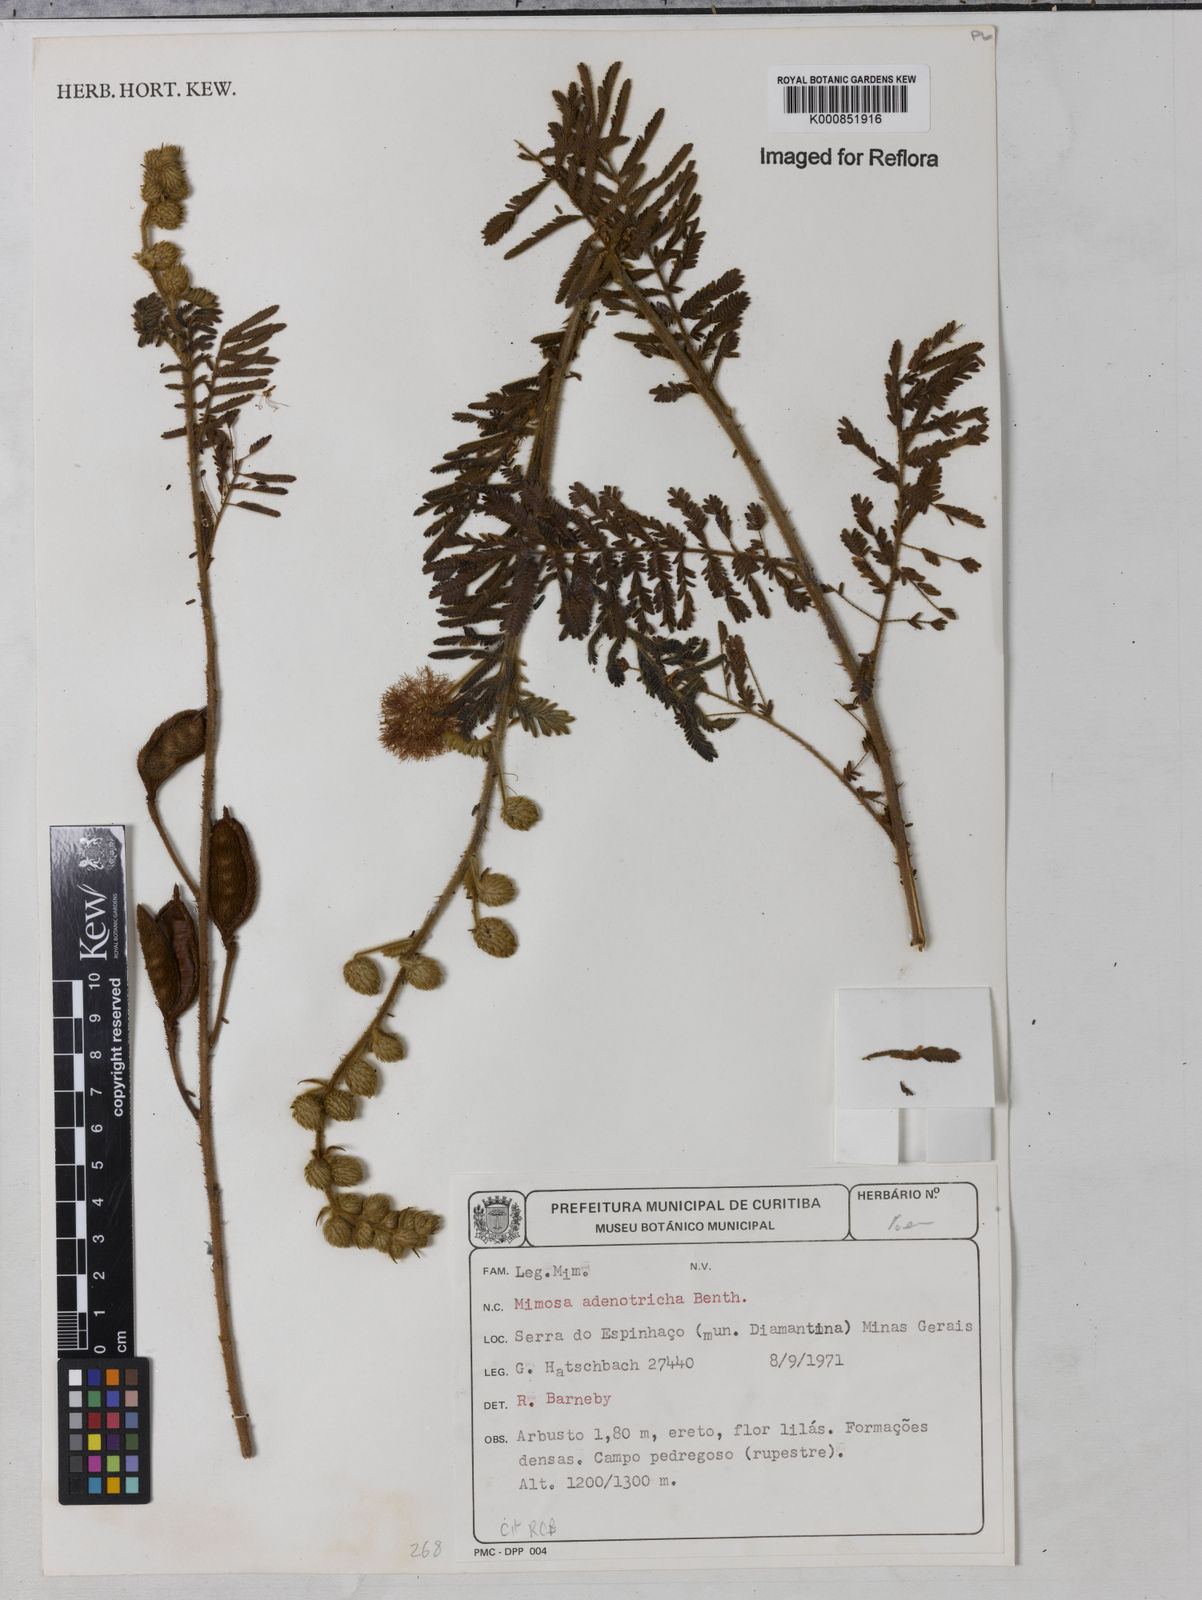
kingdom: Plantae
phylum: Tracheophyta
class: Magnoliopsida
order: Fabales
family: Fabaceae
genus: Mimosa
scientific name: Mimosa adenotricha
